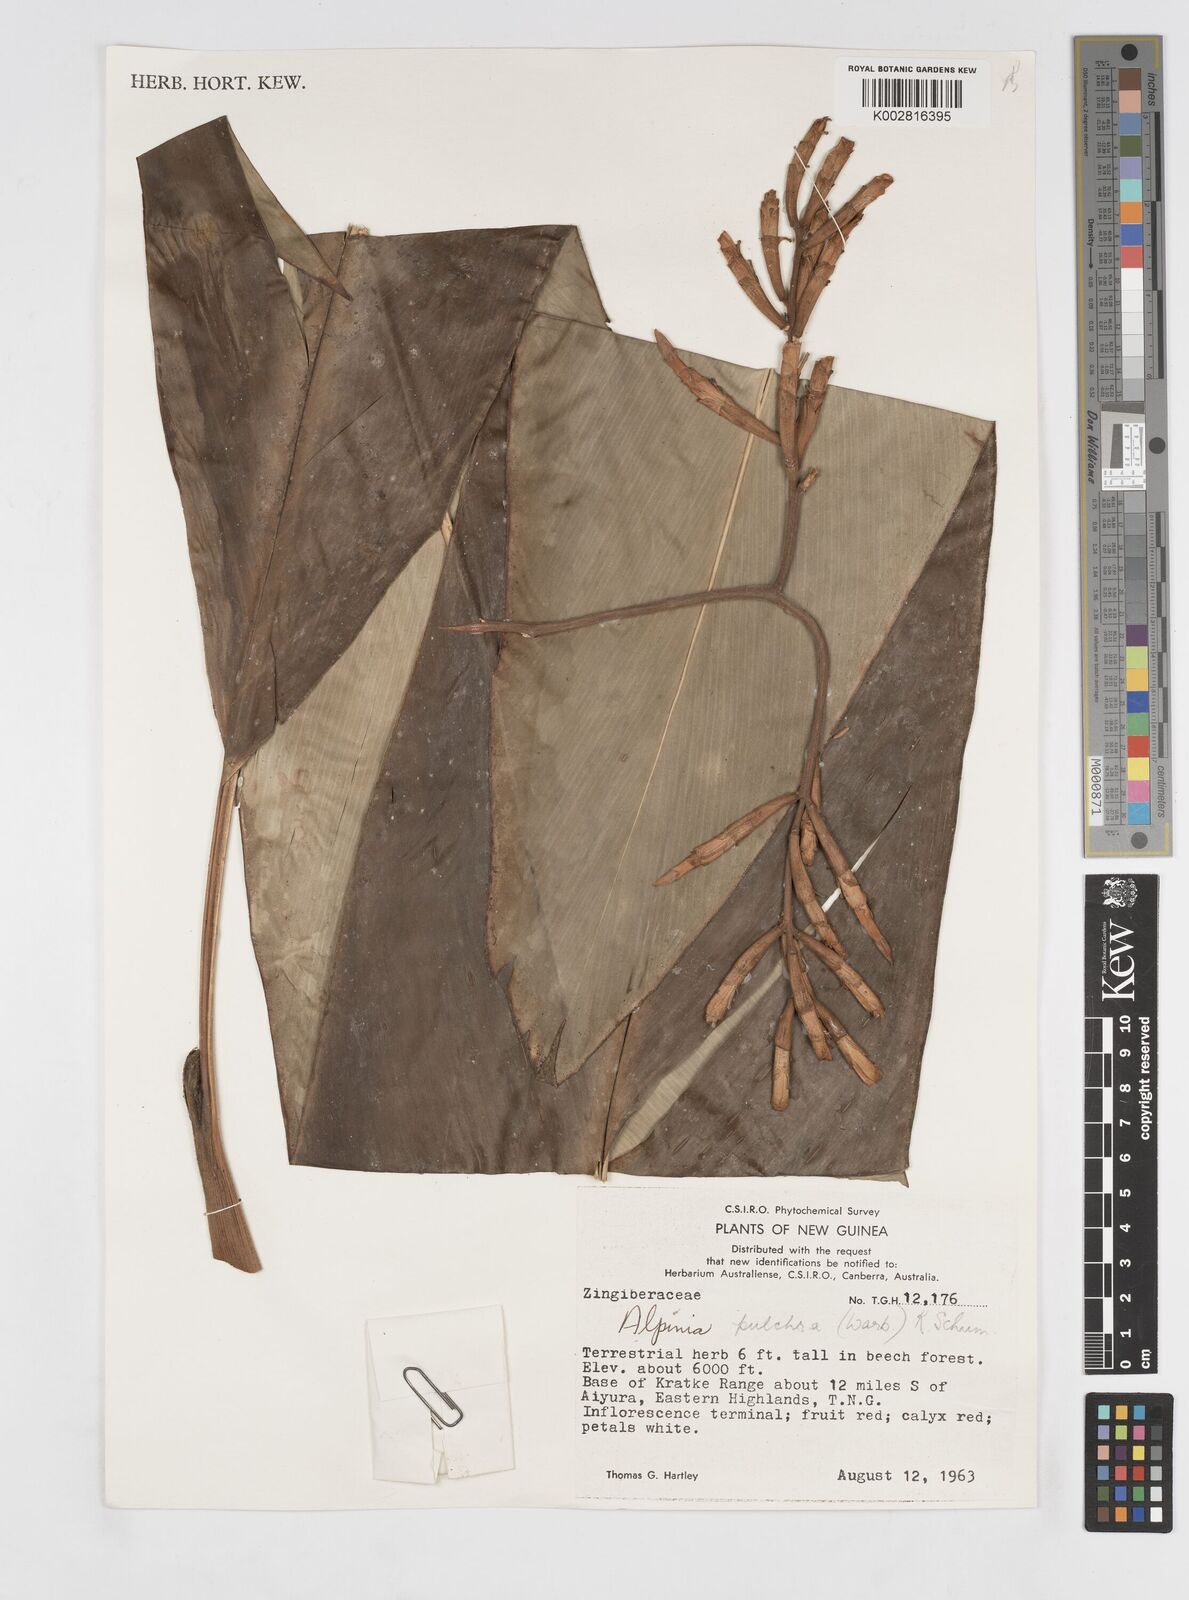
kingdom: Plantae
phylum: Tracheophyta
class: Liliopsida
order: Zingiberales
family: Zingiberaceae
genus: Alpinia
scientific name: Alpinia pulchra
